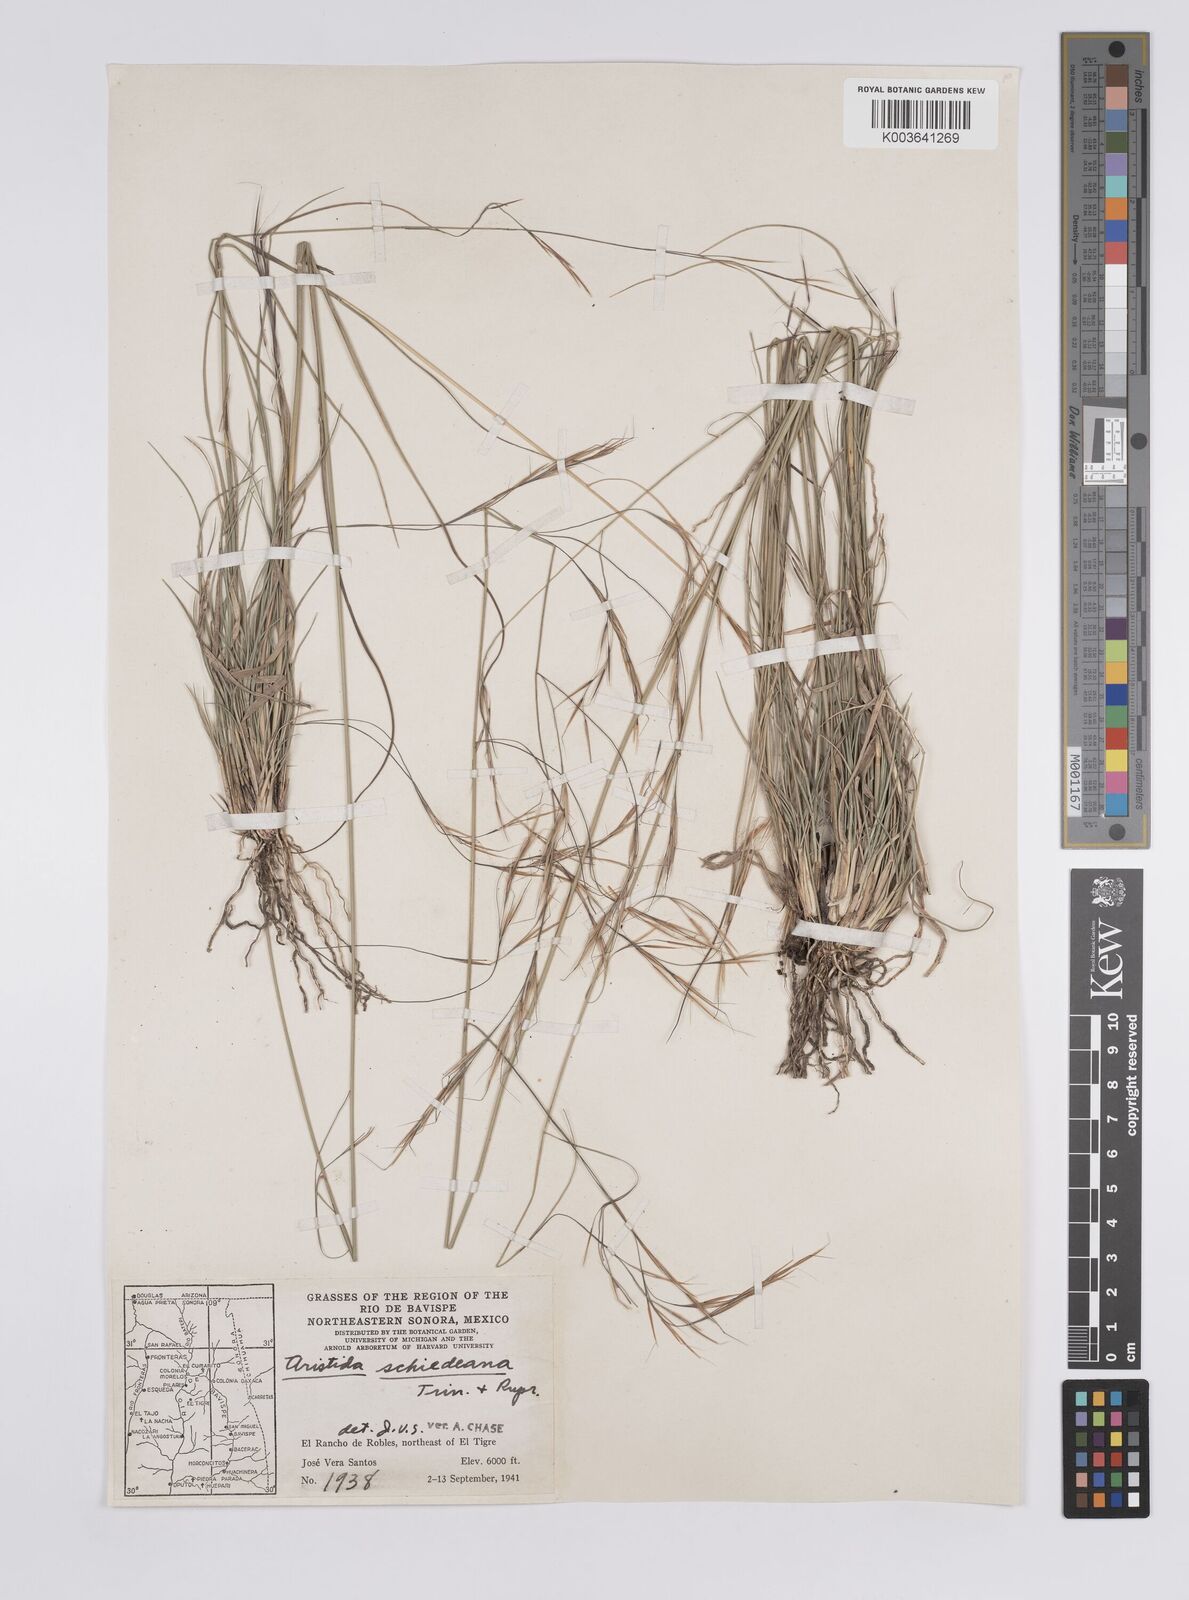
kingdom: Plantae
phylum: Tracheophyta
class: Liliopsida
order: Poales
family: Poaceae
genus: Aristida
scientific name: Aristida schiedeana
